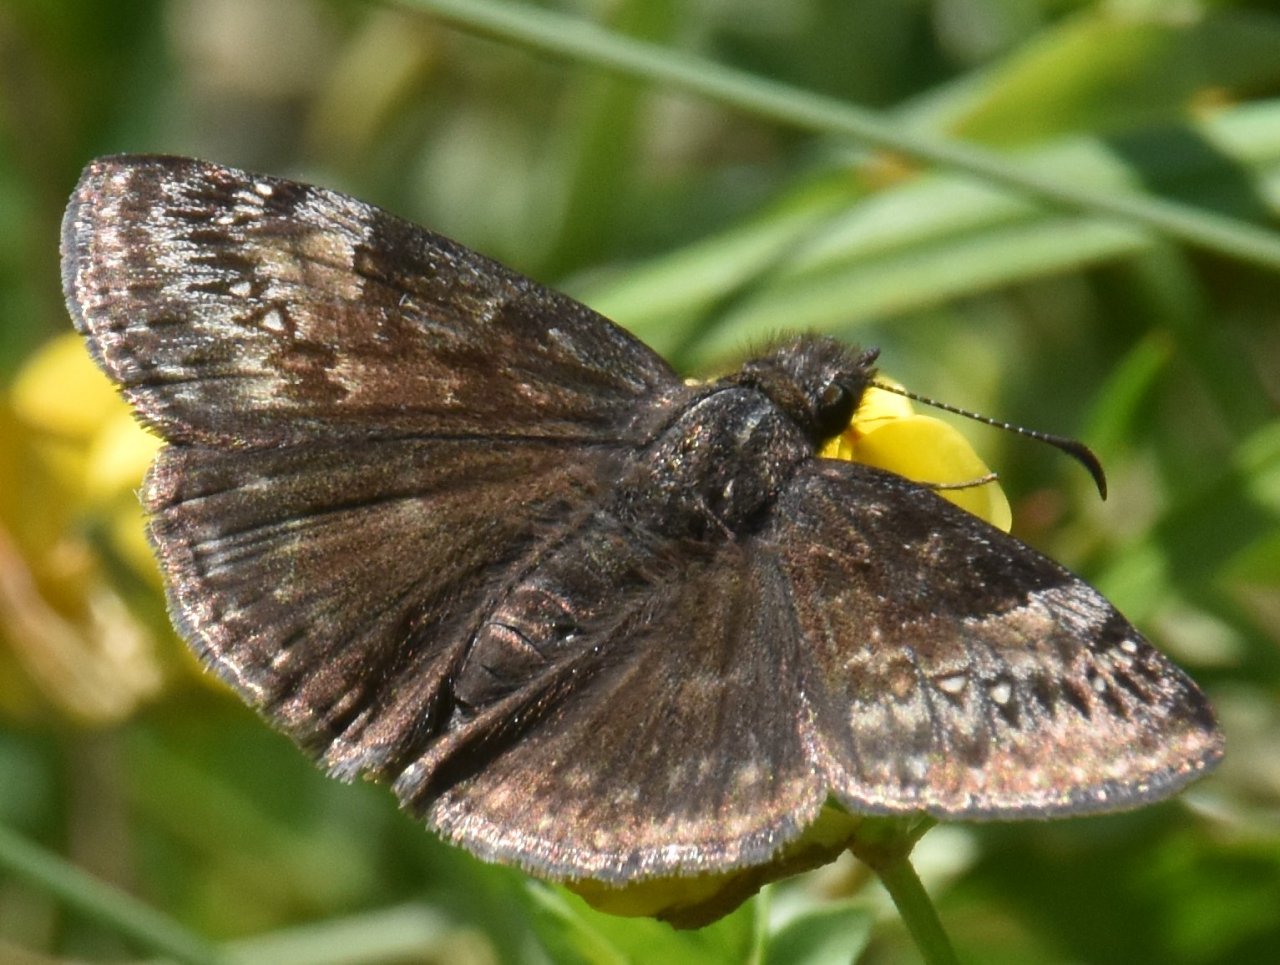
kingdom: Animalia
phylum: Arthropoda
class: Insecta
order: Lepidoptera
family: Hesperiidae
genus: Gesta
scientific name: Gesta
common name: Wild Indigo Duskywing
